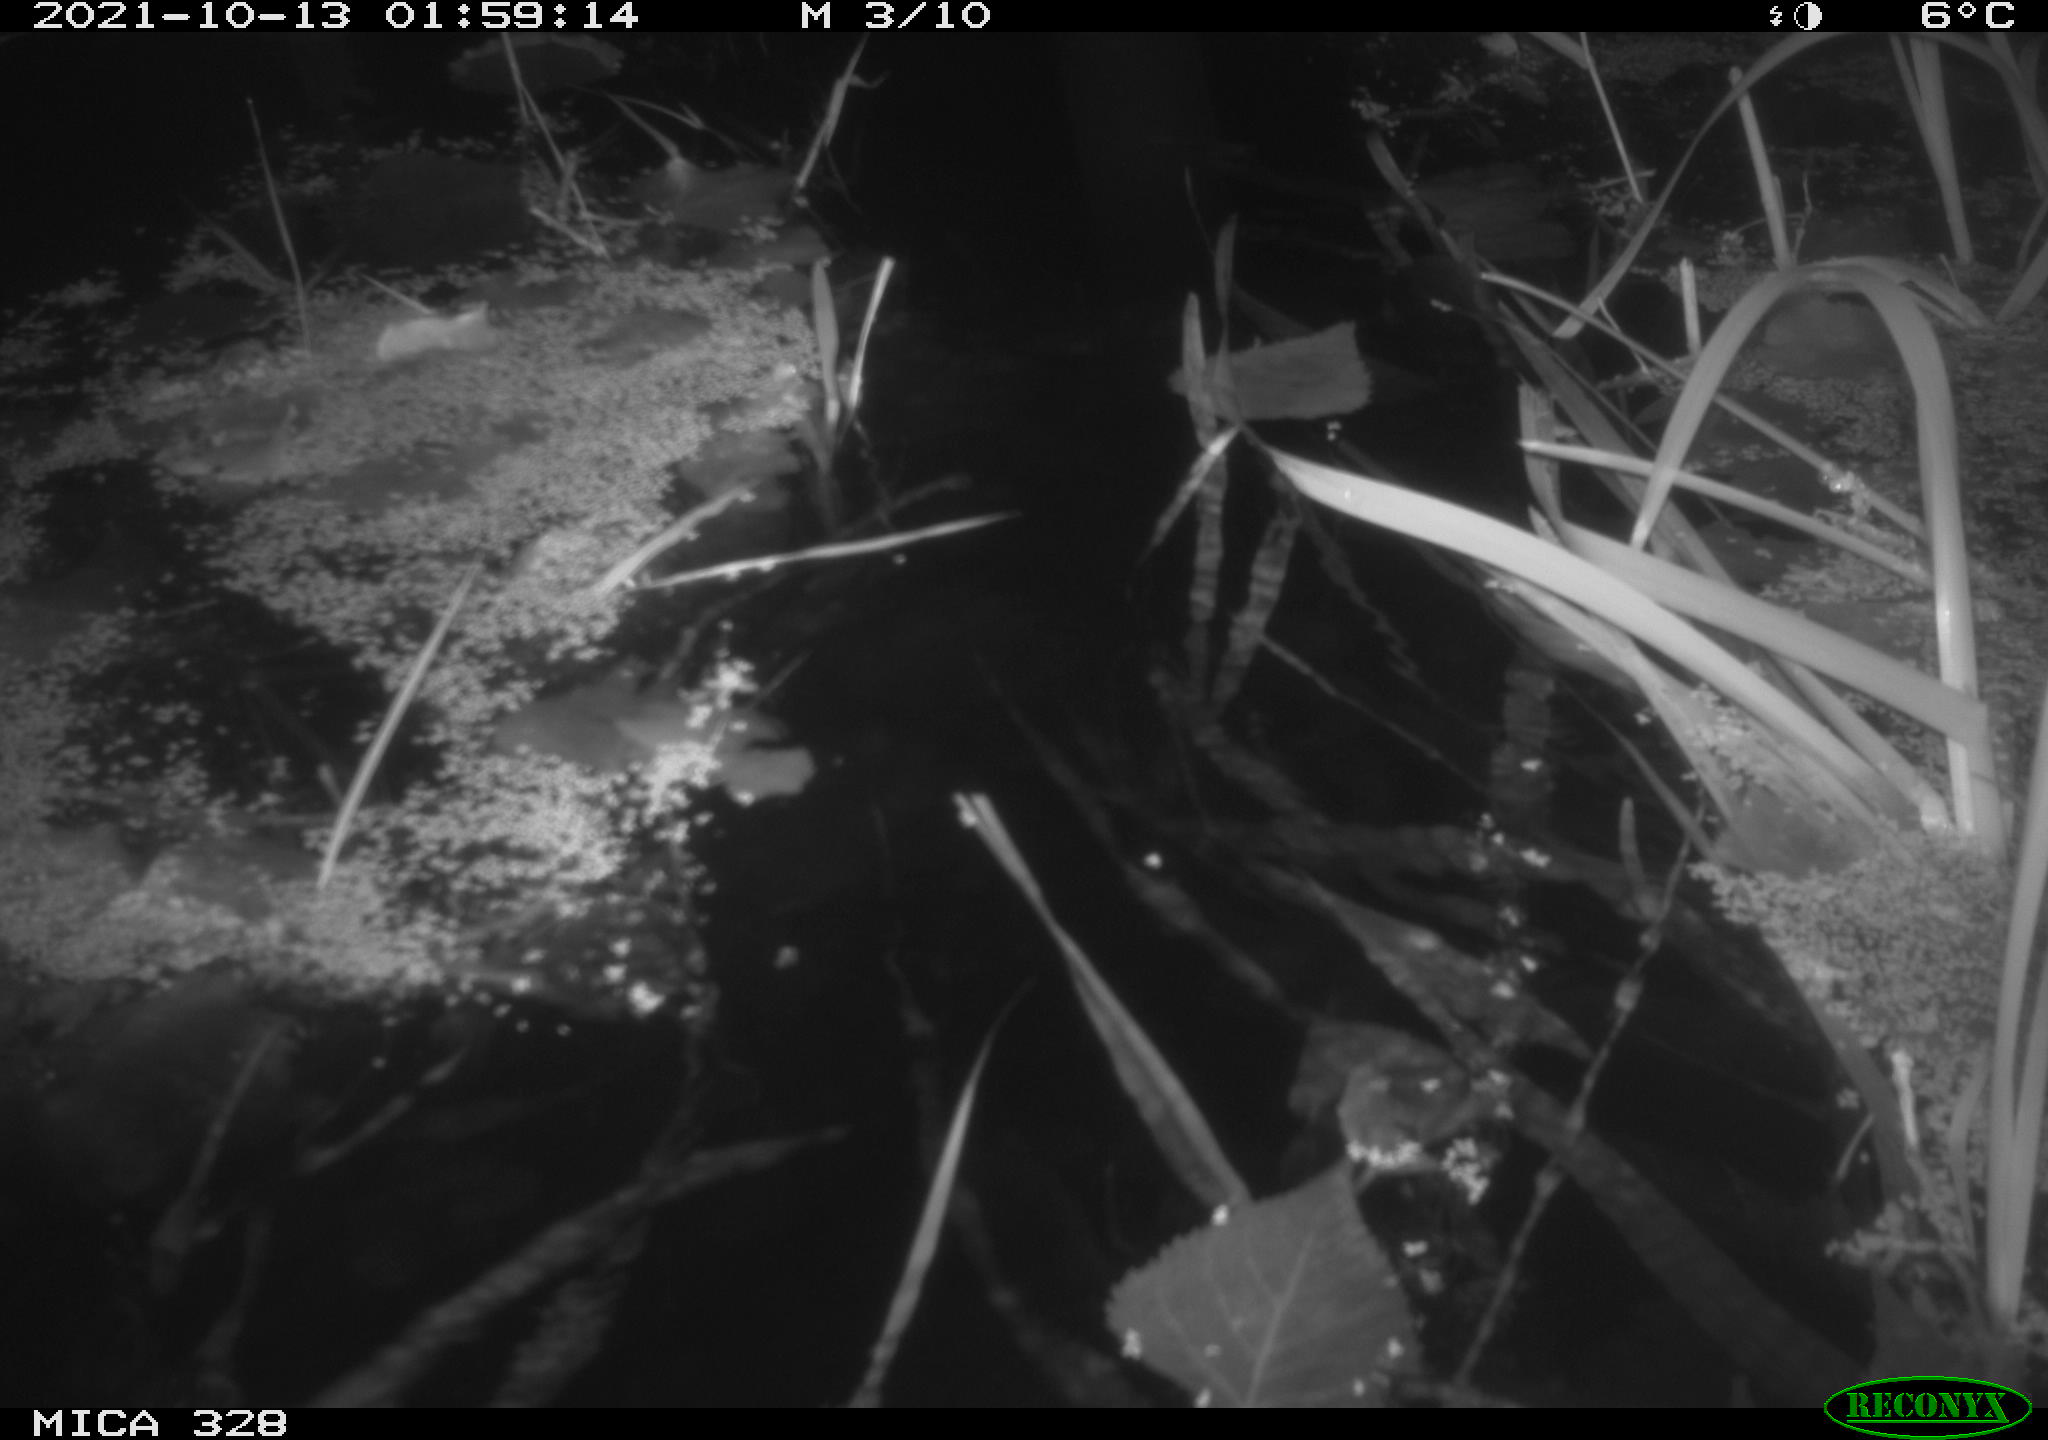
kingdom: Animalia
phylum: Chordata
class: Mammalia
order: Rodentia
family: Cricetidae
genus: Ondatra
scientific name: Ondatra zibethicus
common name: Muskrat
